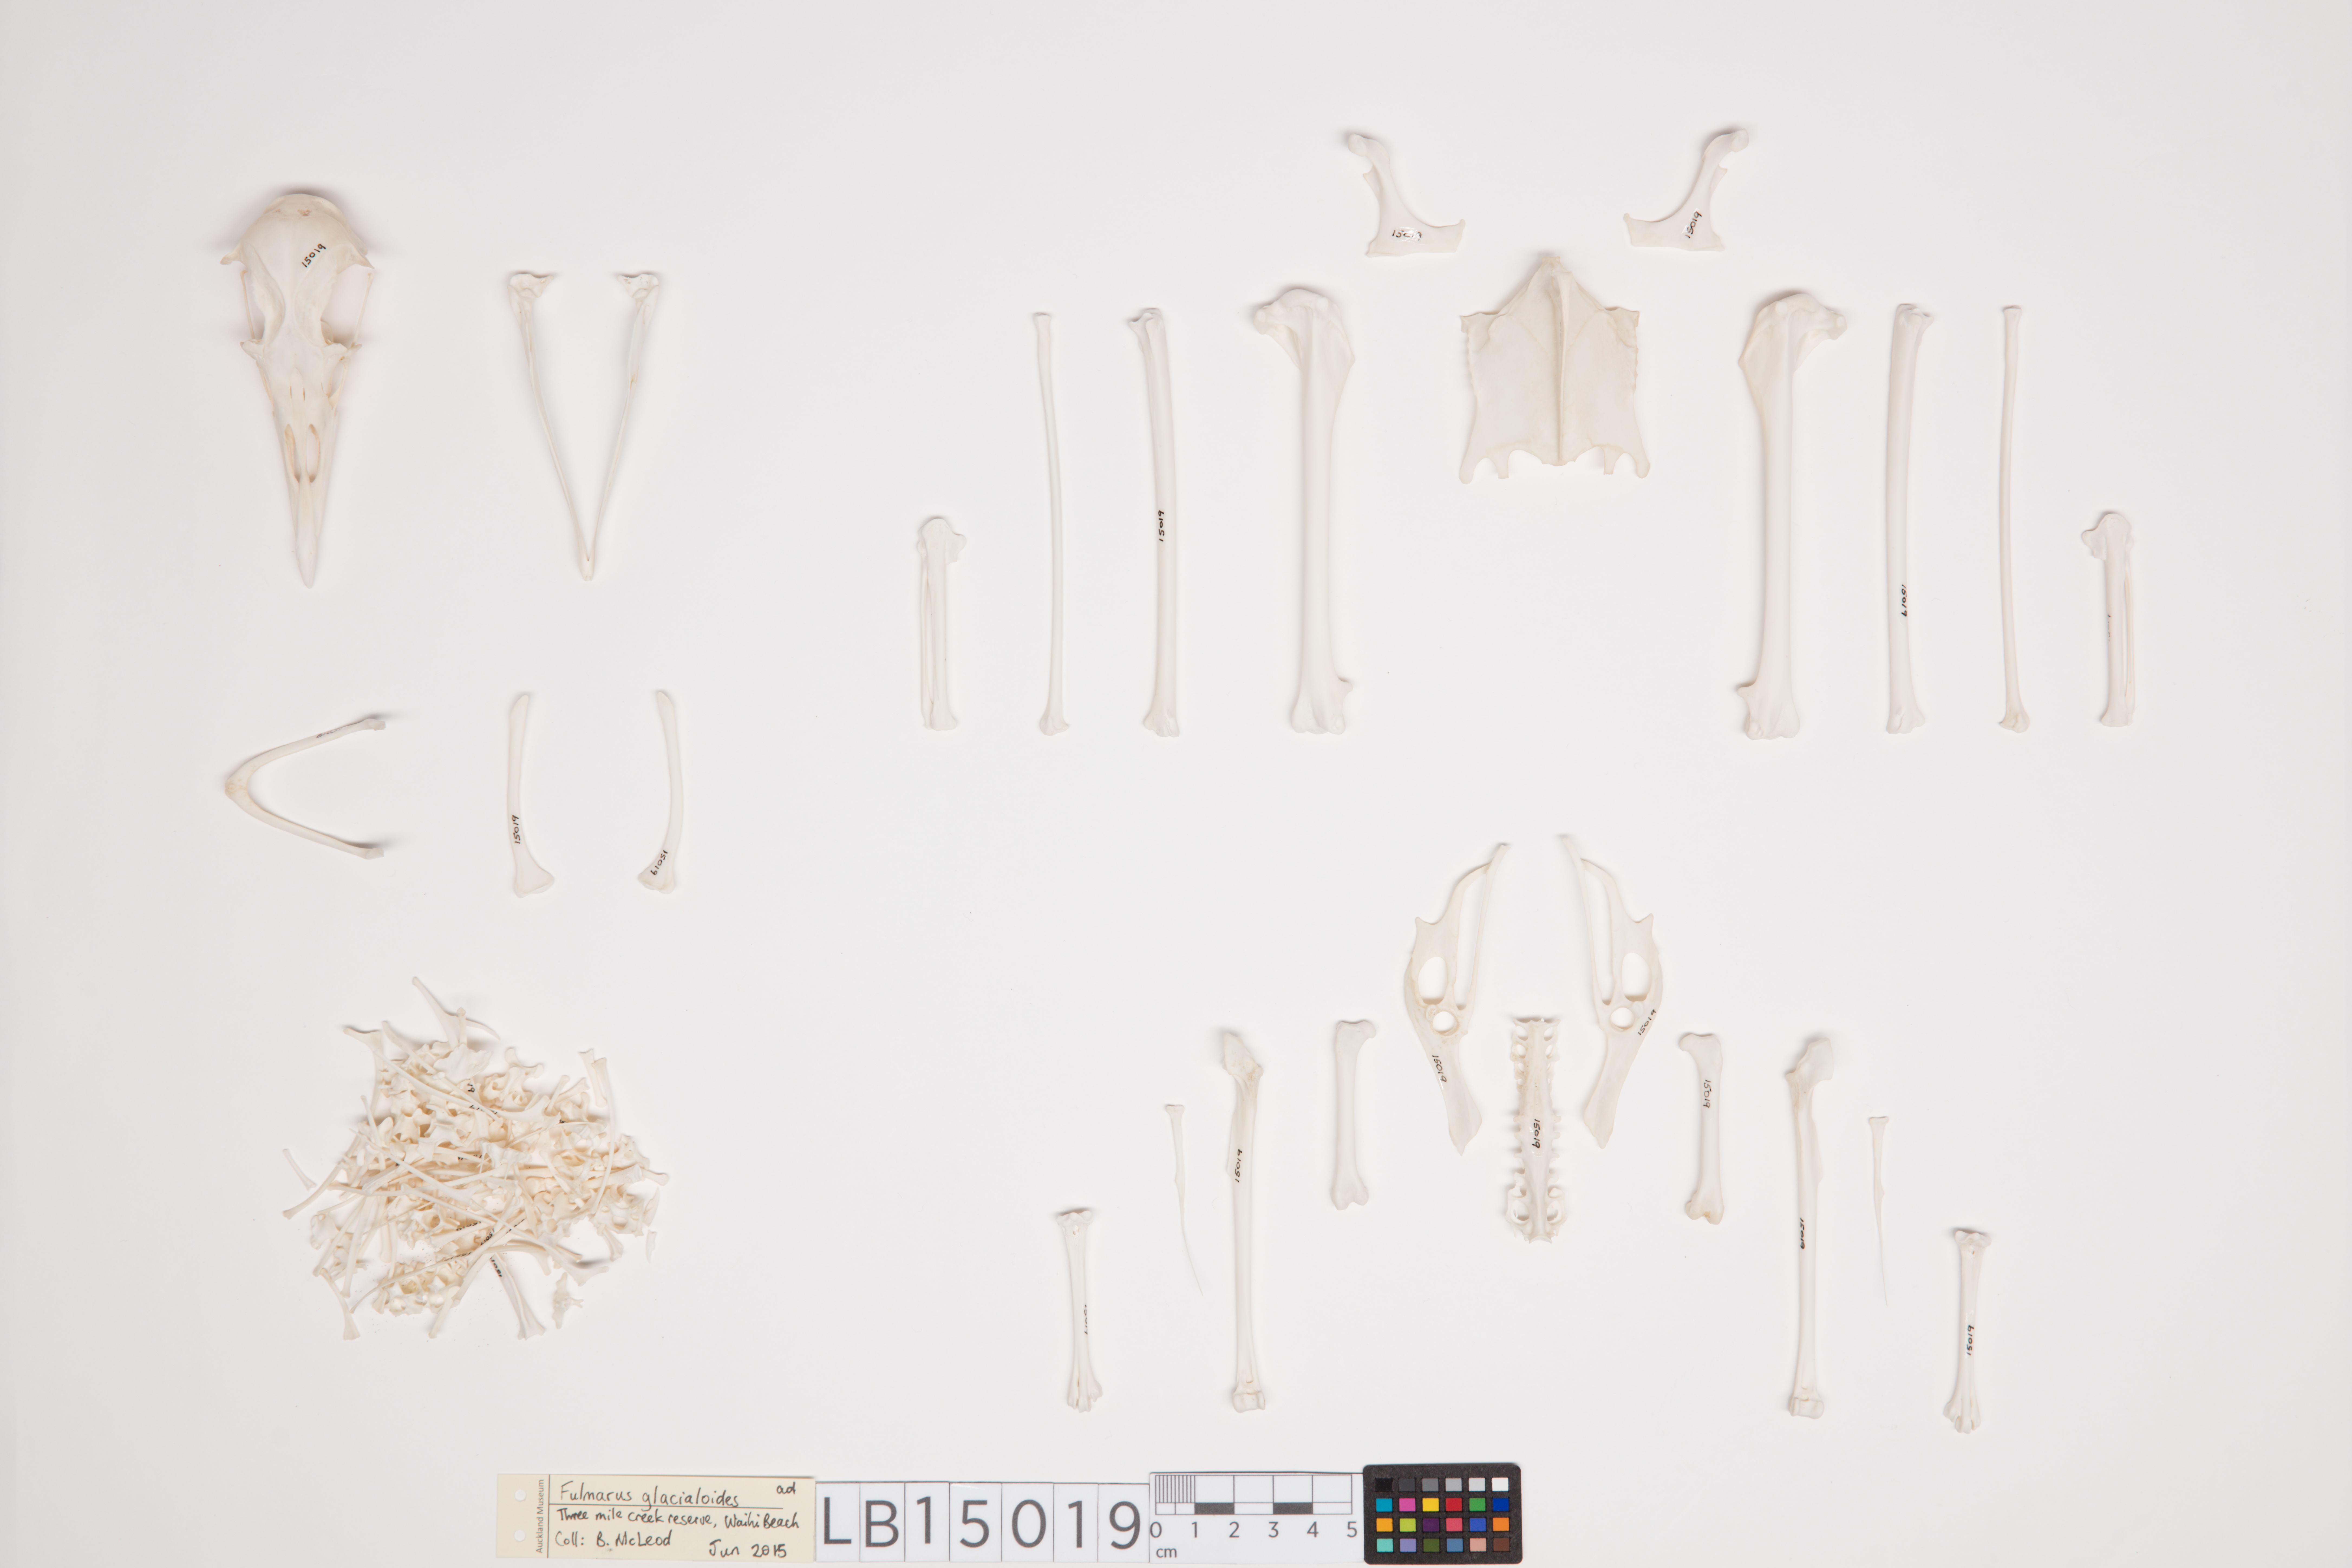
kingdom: Animalia
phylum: Chordata
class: Aves
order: Procellariiformes
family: Procellariidae
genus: Fulmarus
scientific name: Fulmarus glacialoides
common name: Southern fulmar
